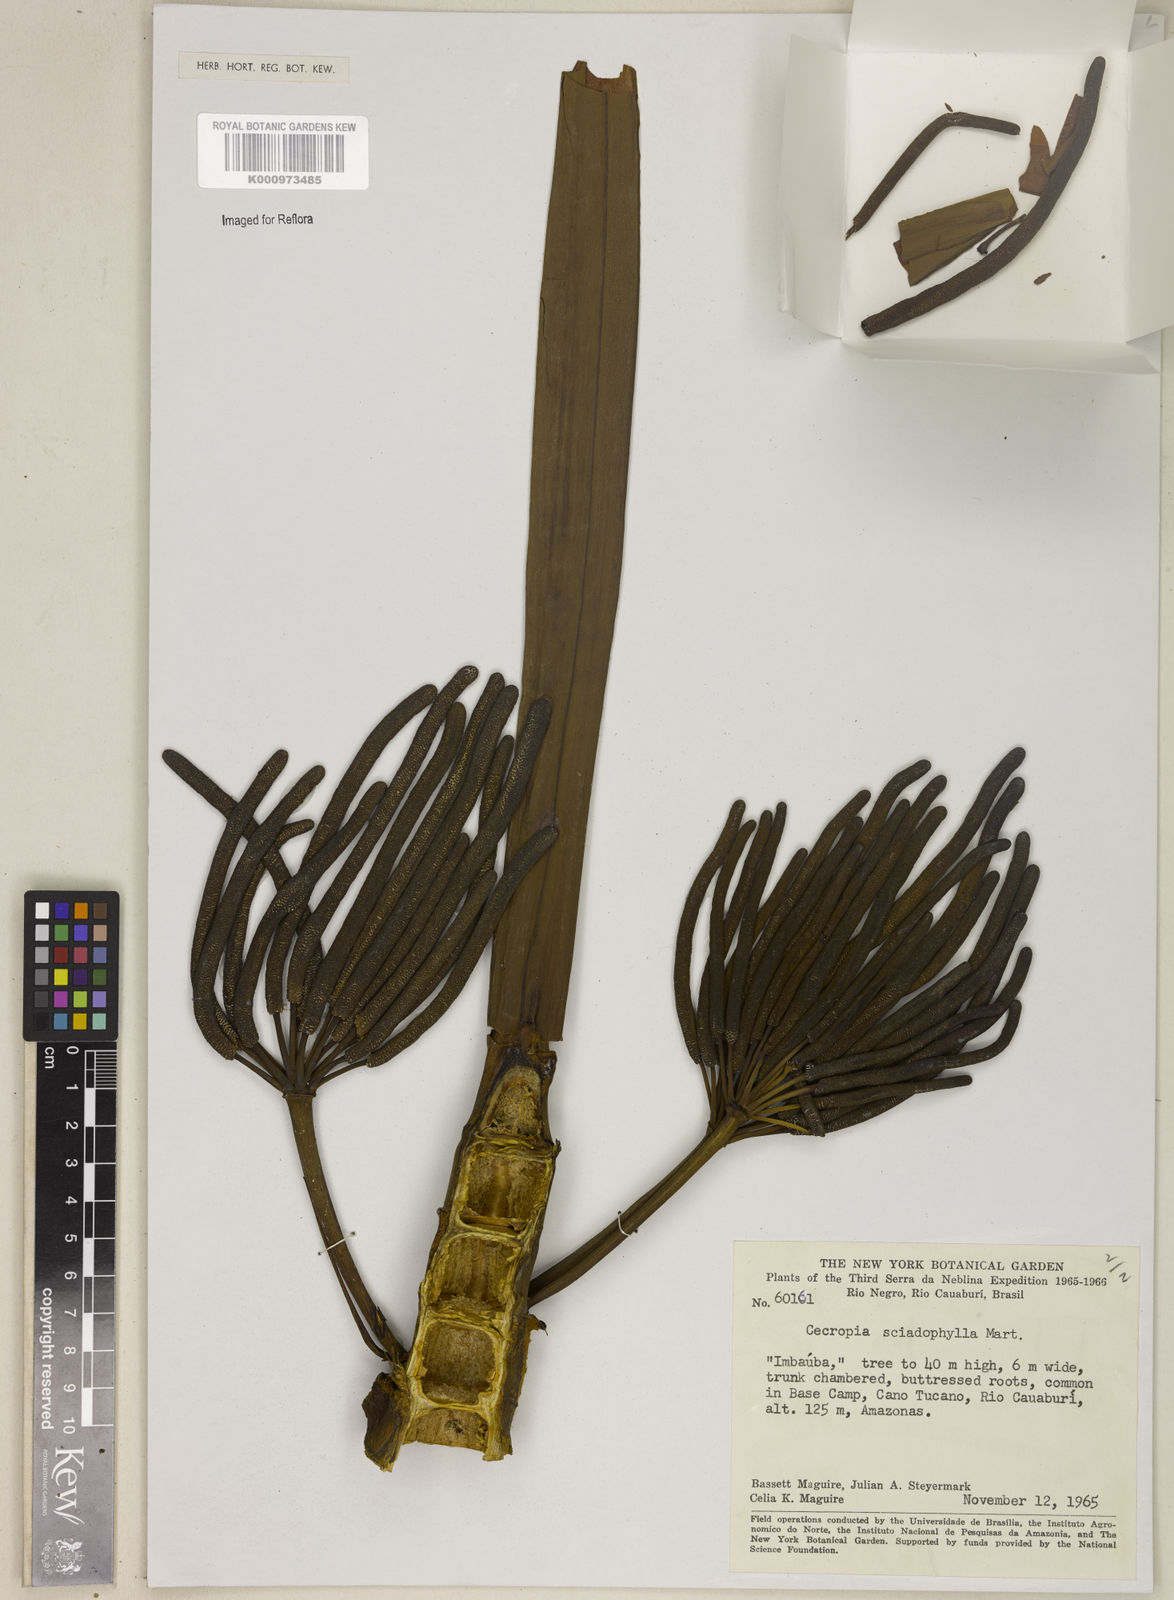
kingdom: Plantae
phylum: Tracheophyta
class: Magnoliopsida
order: Rosales
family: Urticaceae
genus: Cecropia
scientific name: Cecropia sciadophylla
